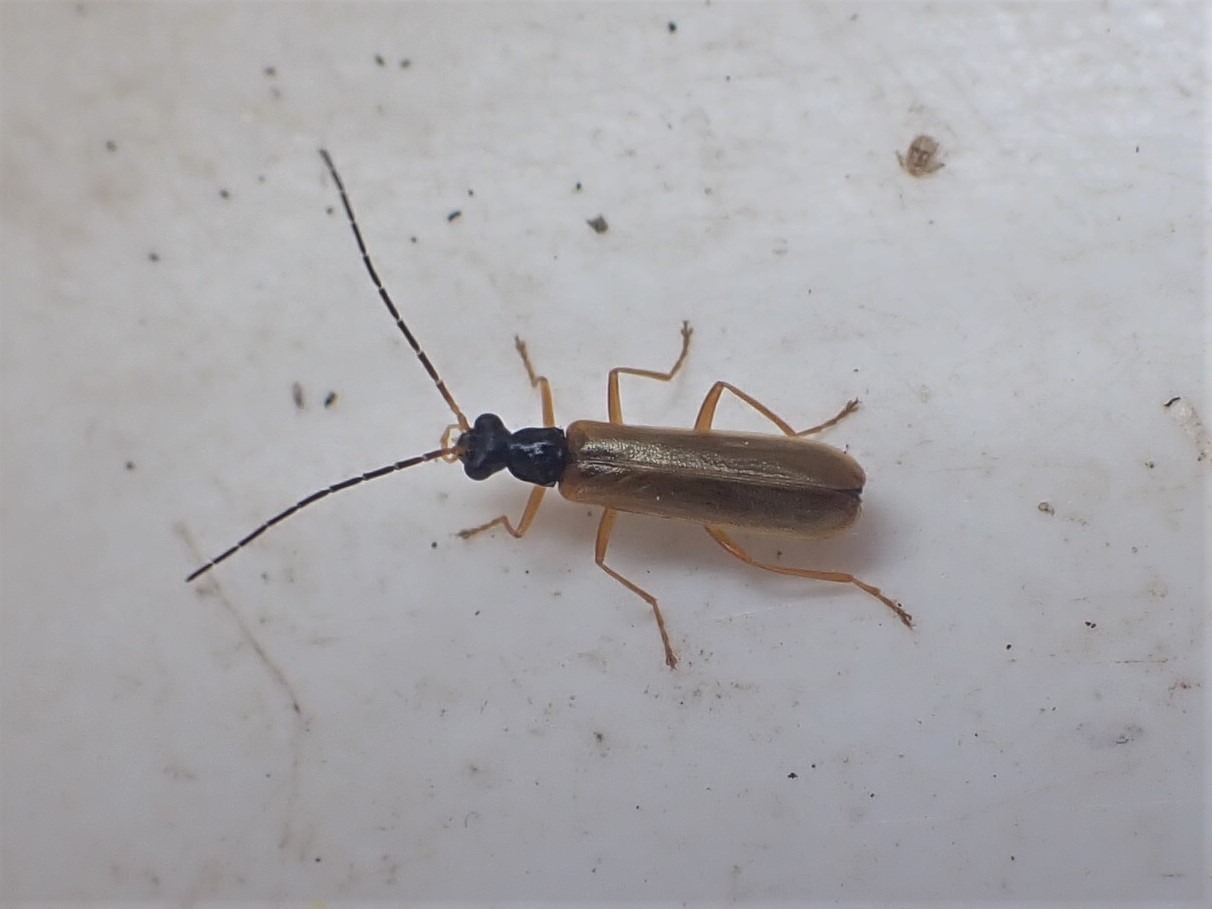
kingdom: Animalia
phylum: Arthropoda
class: Insecta
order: Coleoptera
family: Cantharidae
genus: Rhagonycha
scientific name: Rhagonycha lignosa
